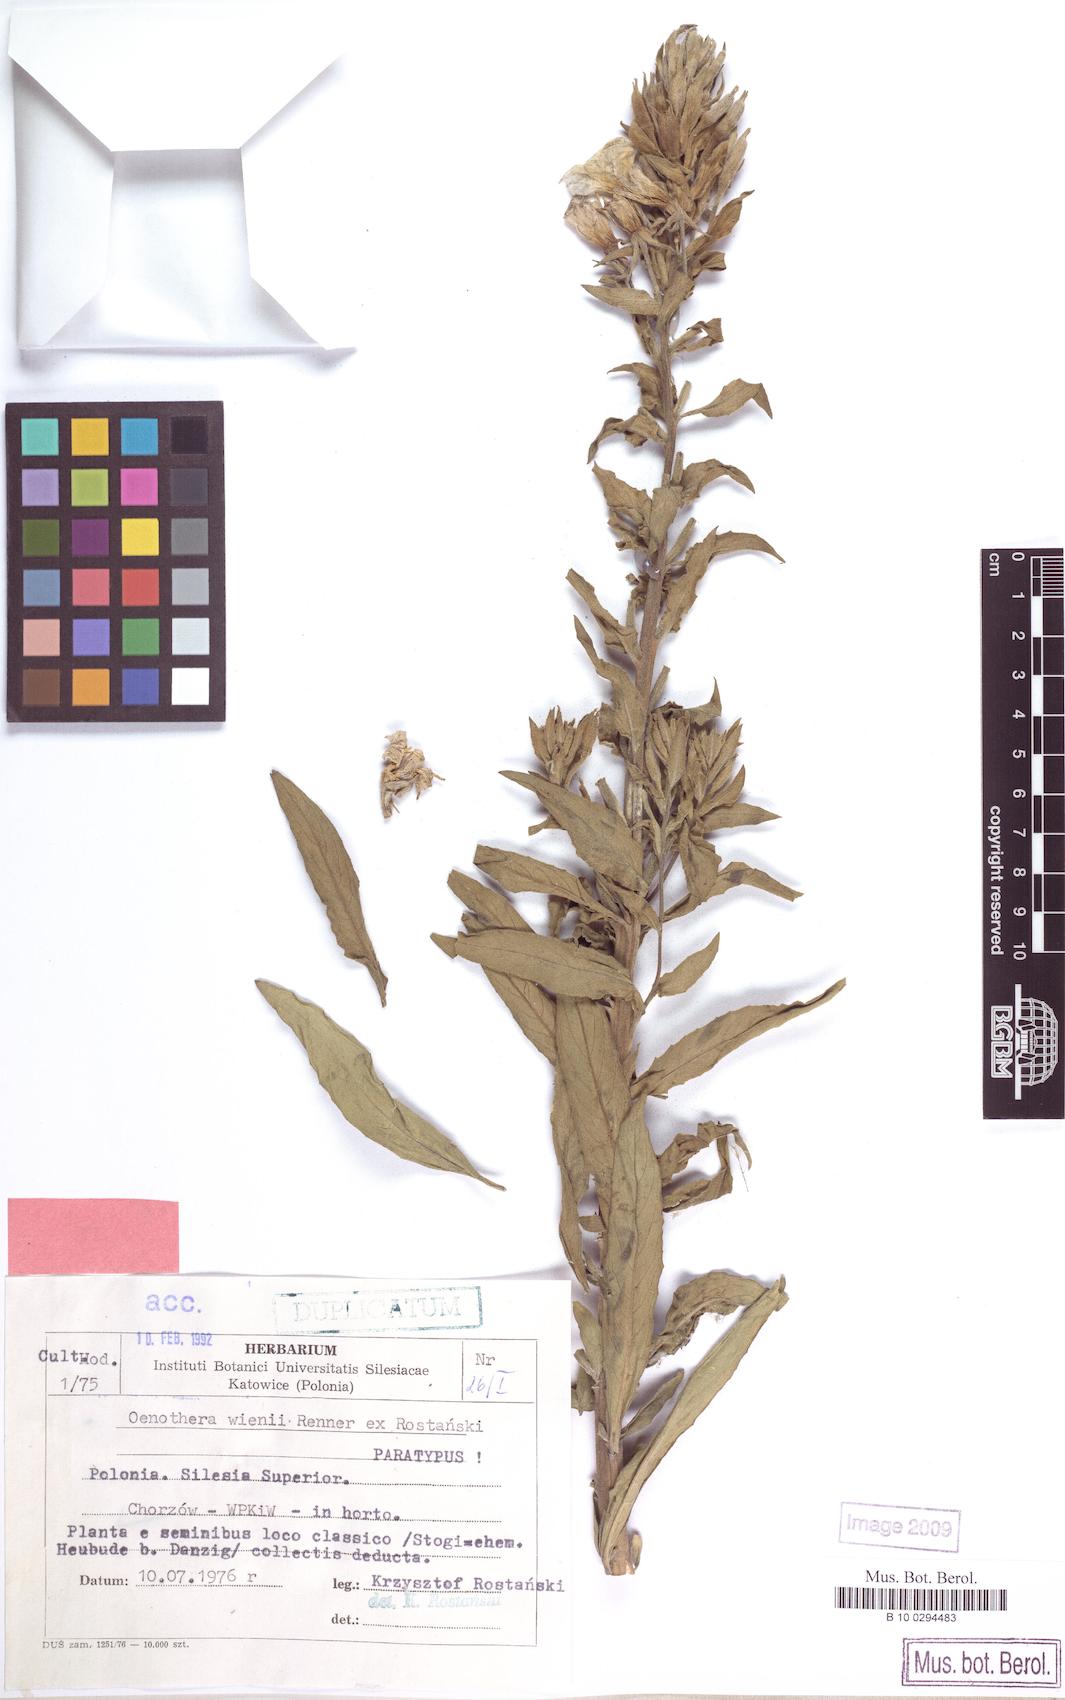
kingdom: Plantae
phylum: Tracheophyta
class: Magnoliopsida
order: Myrtales
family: Onagraceae
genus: Oenothera
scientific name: Oenothera wienii
